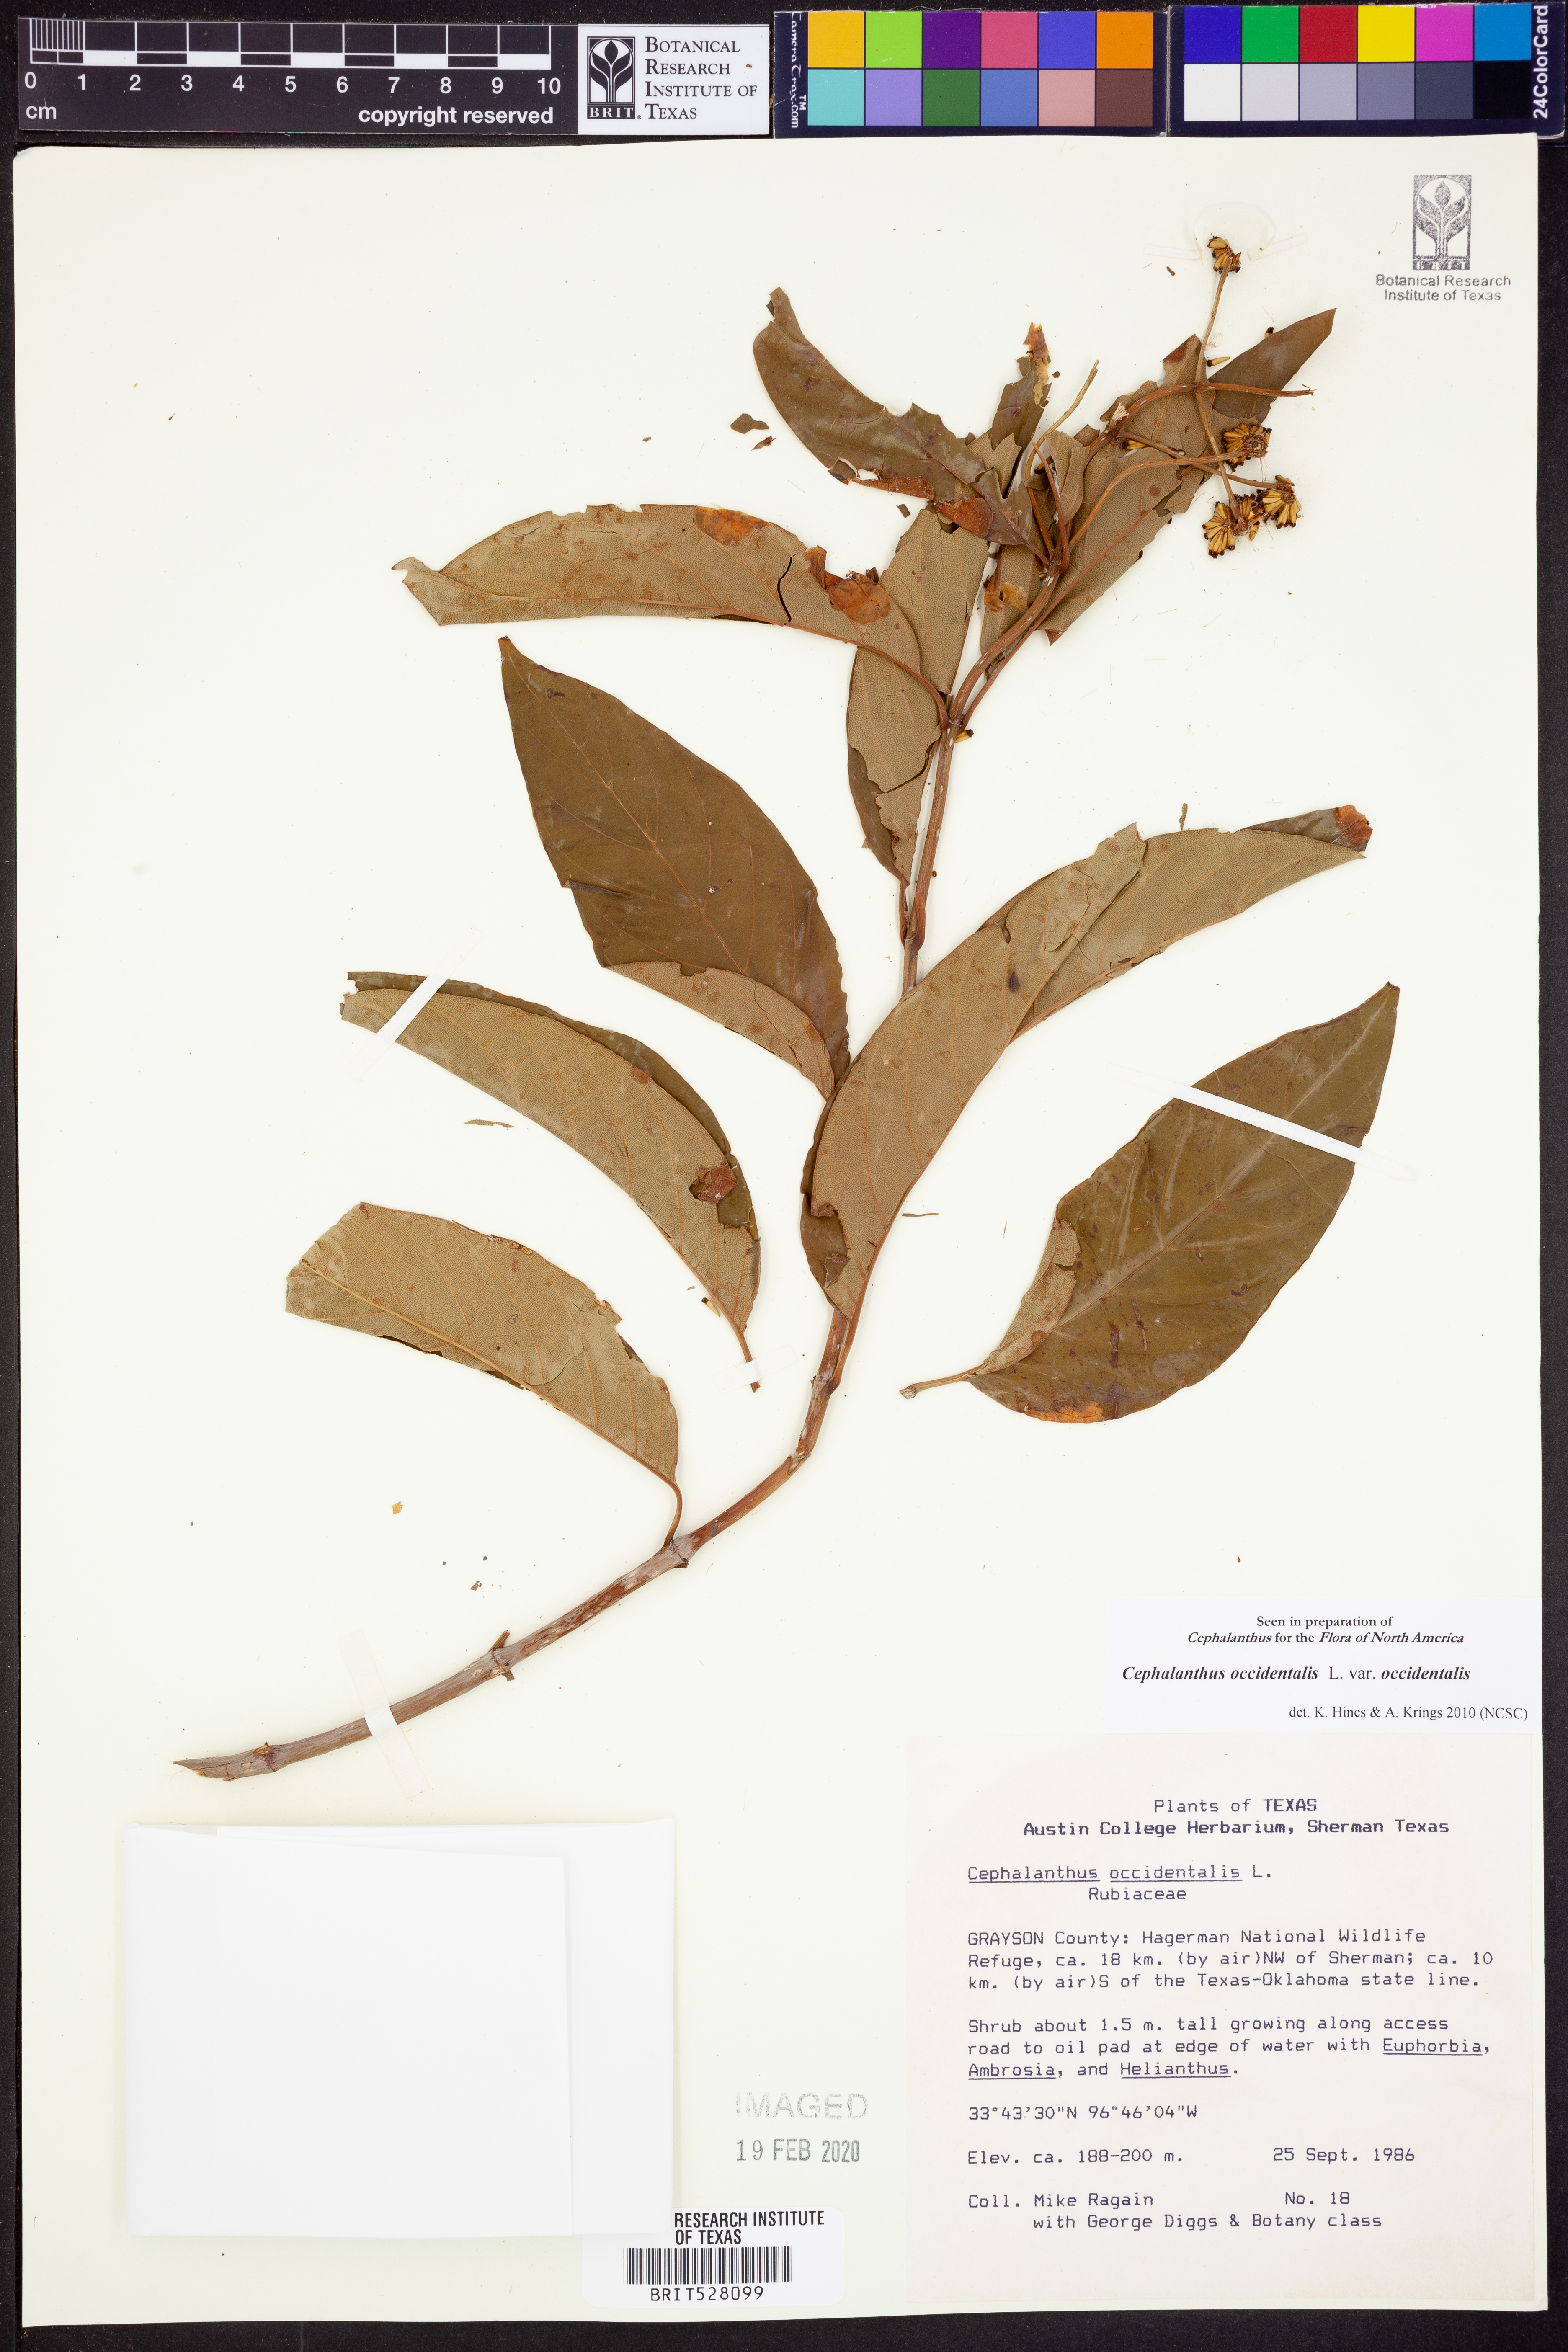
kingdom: Plantae
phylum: Tracheophyta
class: Magnoliopsida
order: Gentianales
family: Rubiaceae
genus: Cephalanthus
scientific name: Cephalanthus occidentalis
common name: Button-willow
